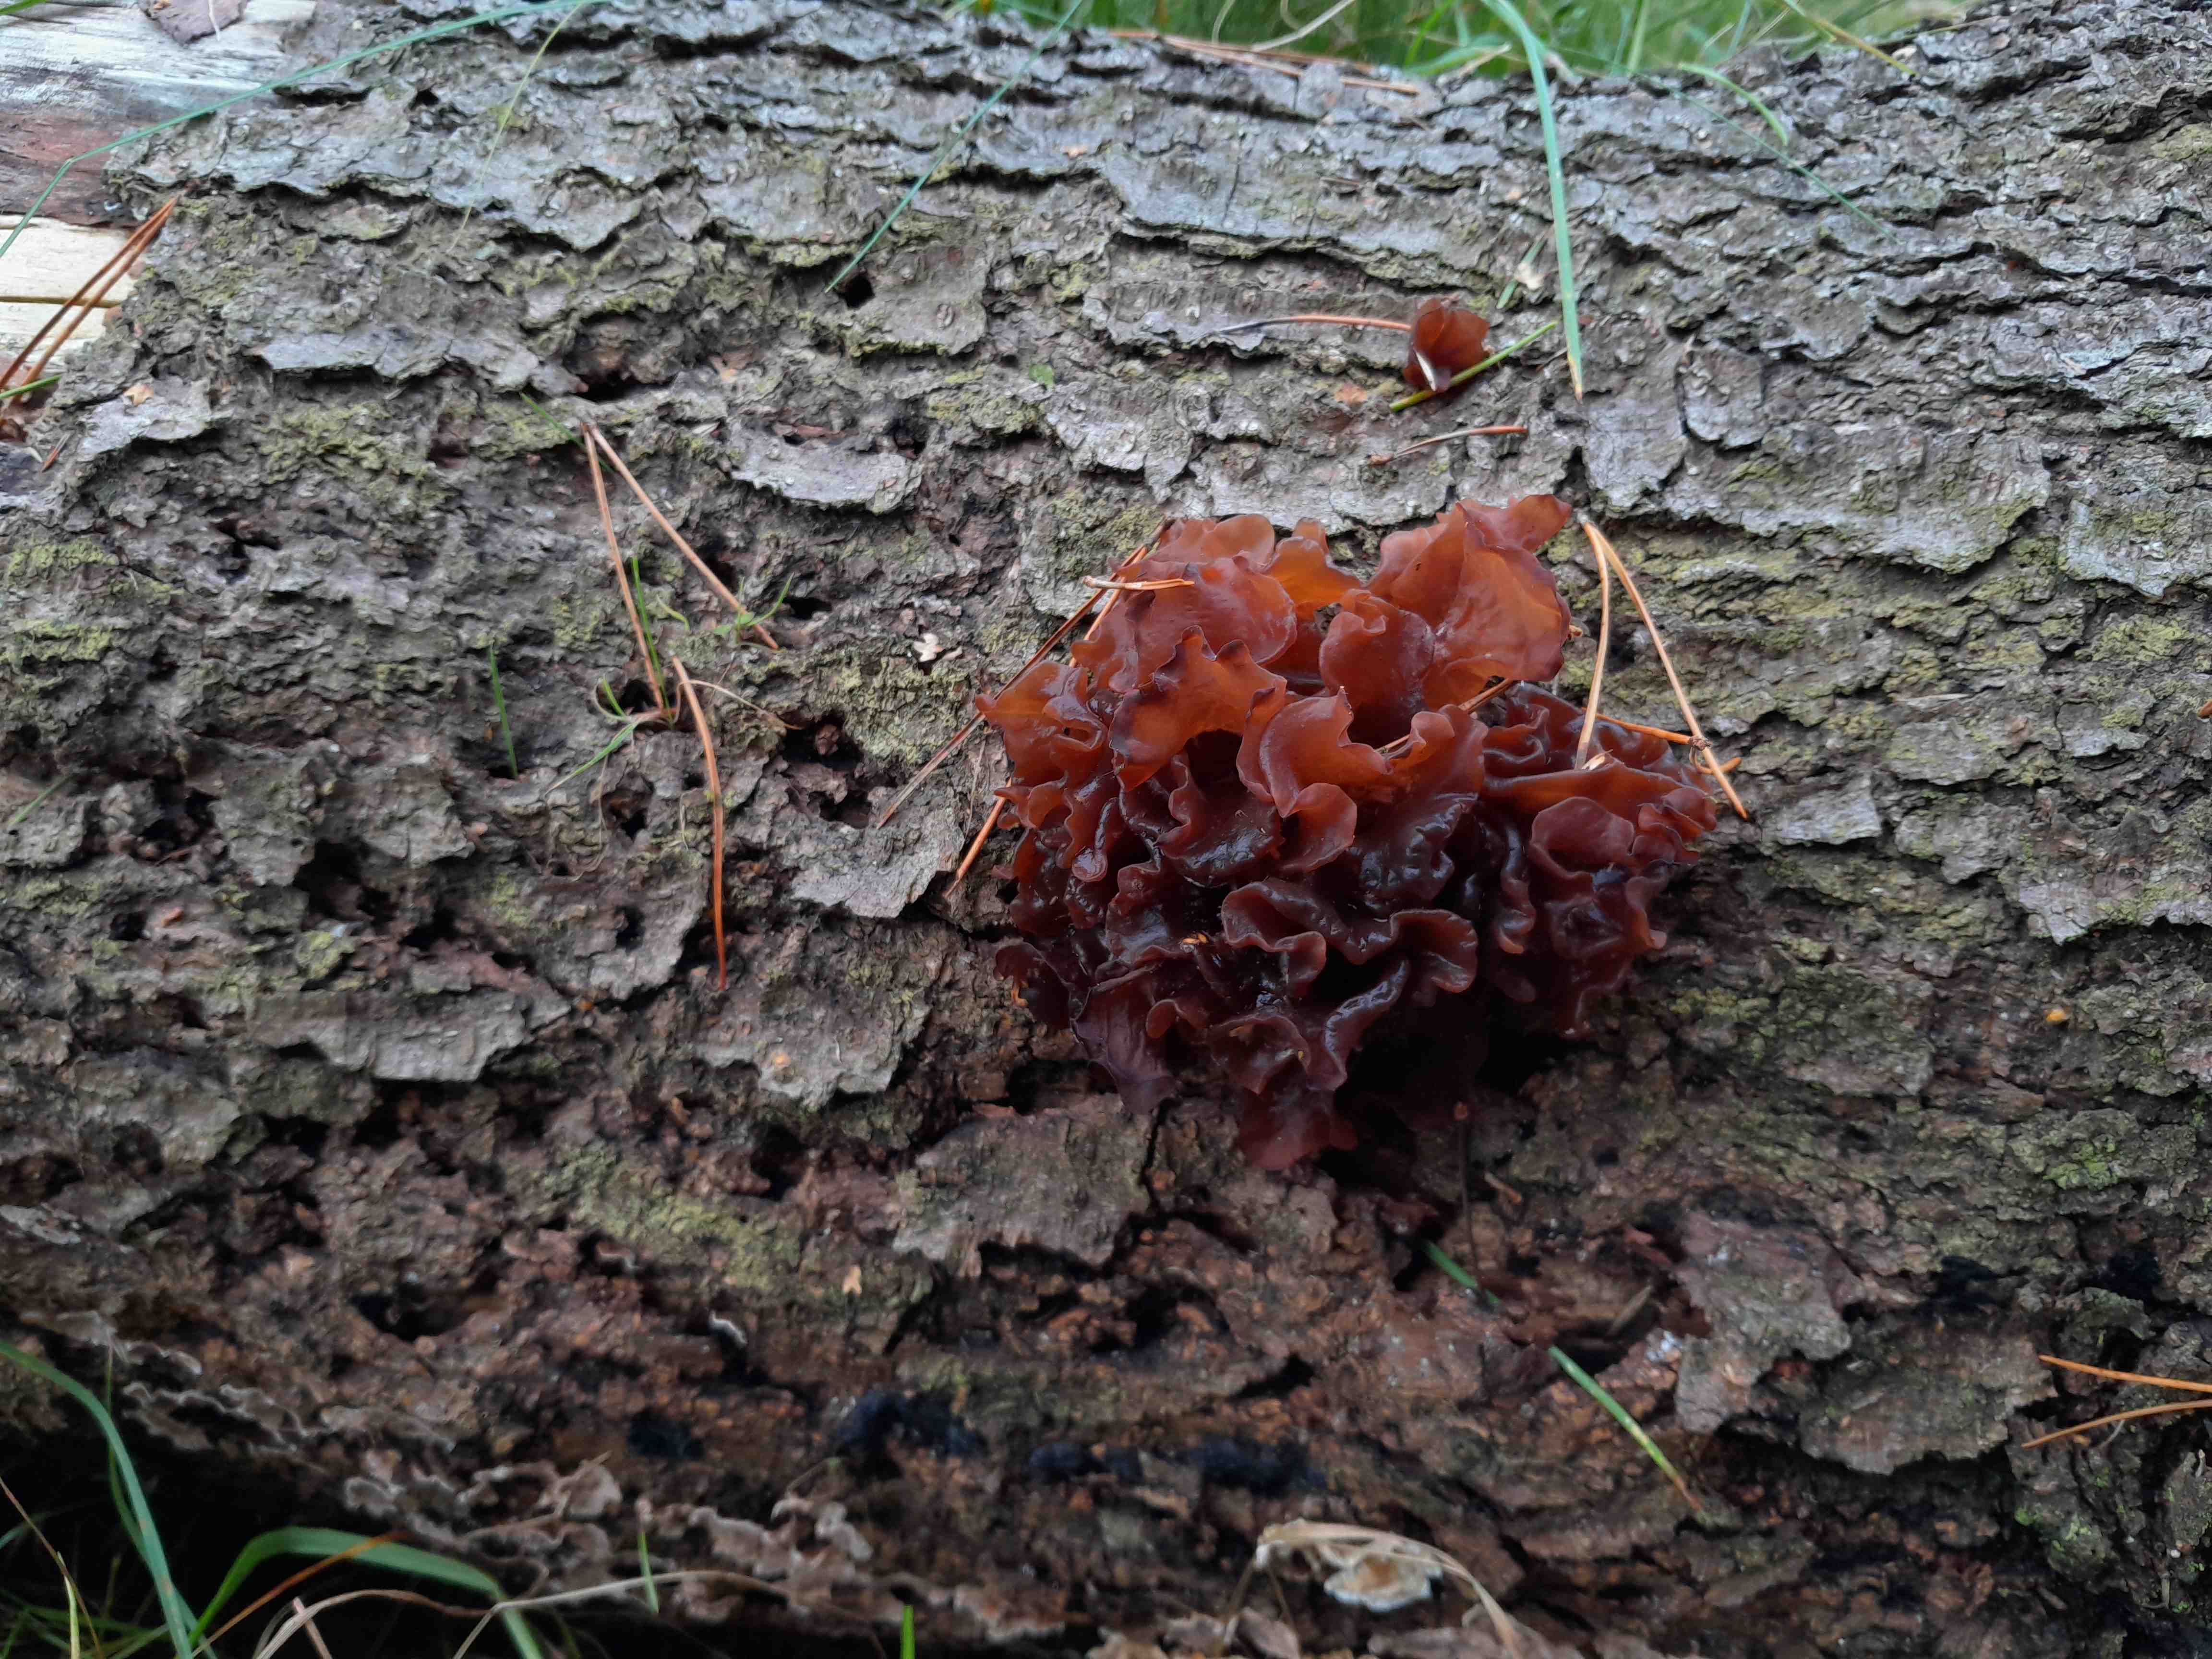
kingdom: Fungi
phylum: Basidiomycota
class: Tremellomycetes
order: Tremellales
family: Tremellaceae
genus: Phaeotremella
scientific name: Phaeotremella foliacea
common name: brun bævresvamp
